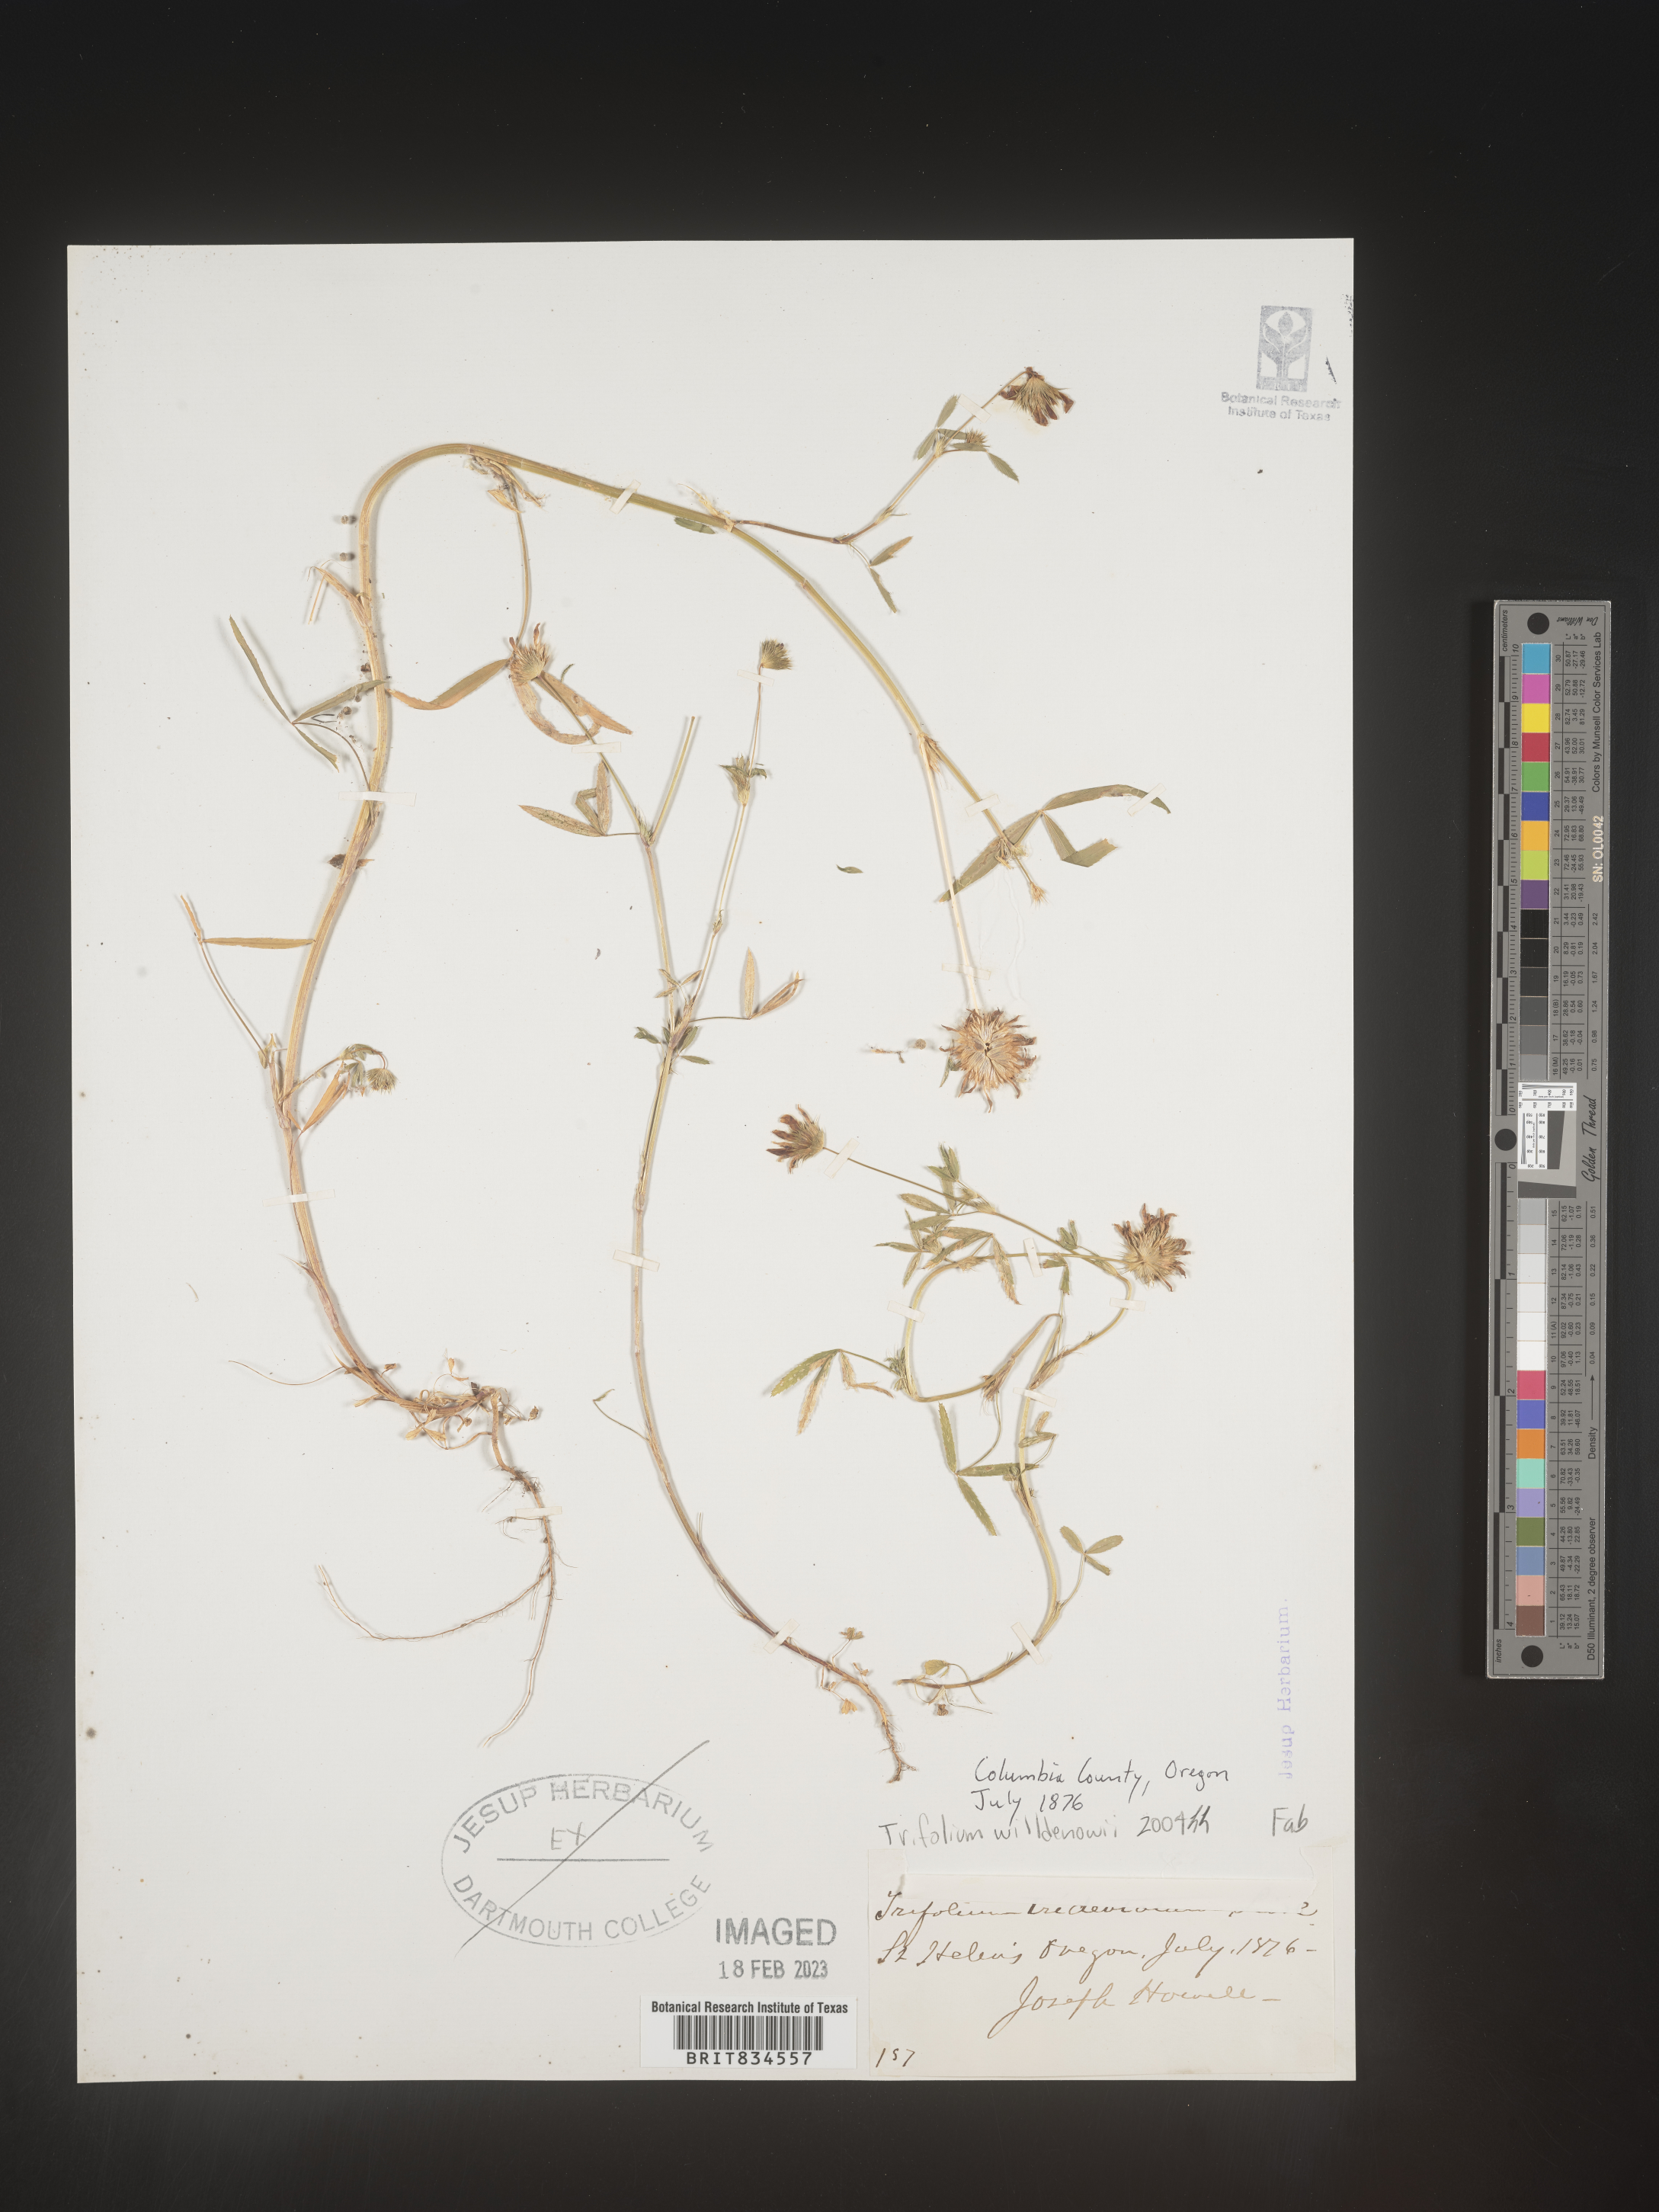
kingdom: Plantae
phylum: Tracheophyta
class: Magnoliopsida
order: Fabales
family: Fabaceae
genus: Trifolium
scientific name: Trifolium
